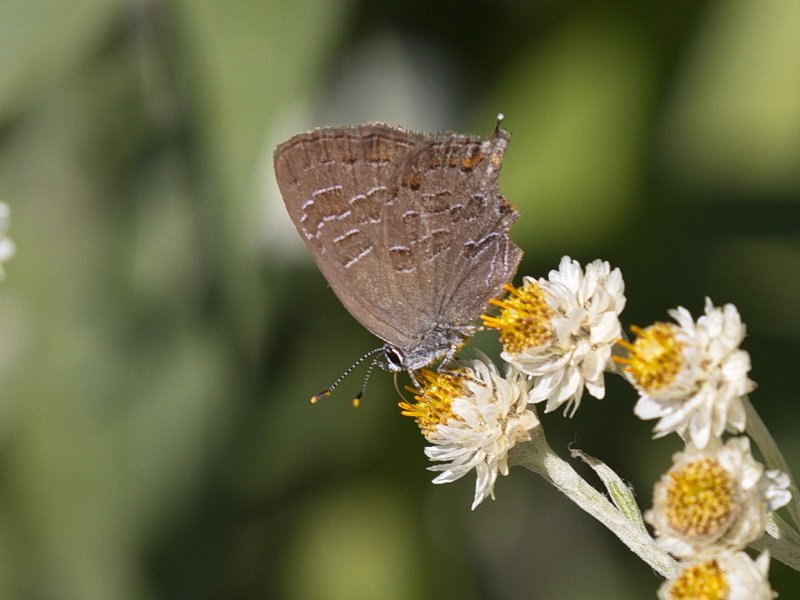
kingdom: Animalia
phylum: Arthropoda
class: Insecta
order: Lepidoptera
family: Lycaenidae
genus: Satyrium
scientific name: Satyrium liparops
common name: Striped Hairstreak
